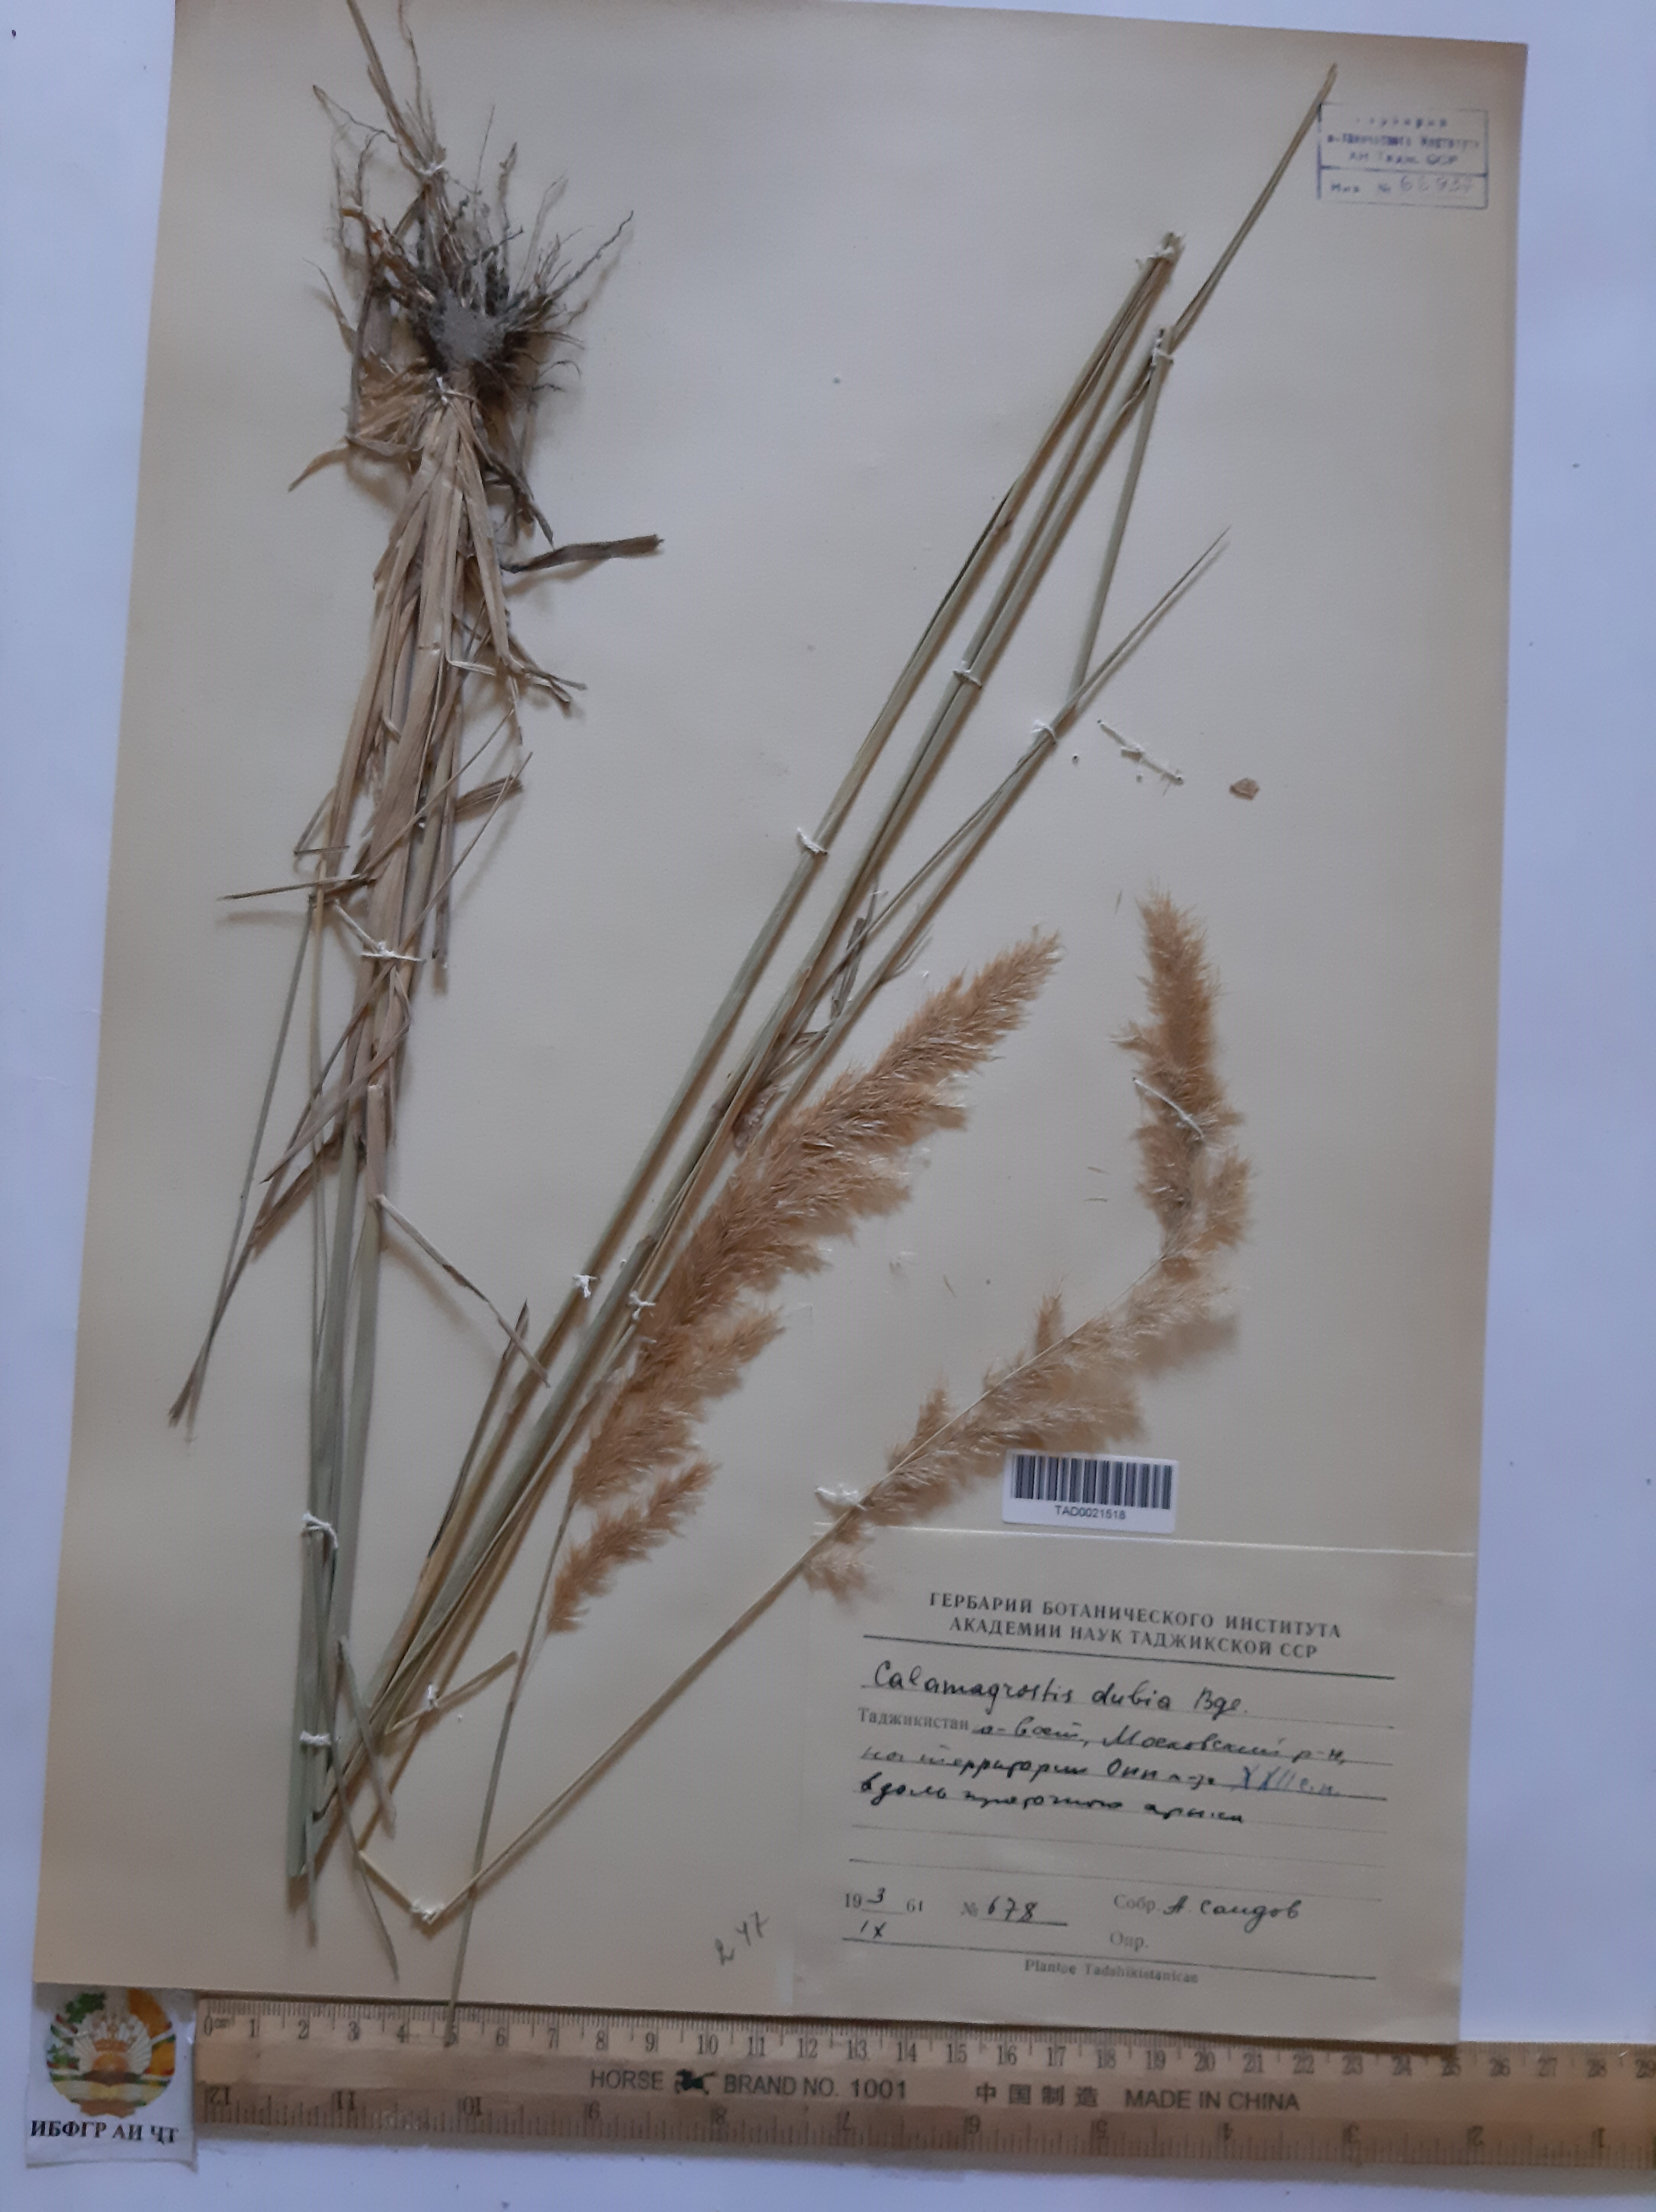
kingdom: Plantae
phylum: Tracheophyta
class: Liliopsida
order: Poales
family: Poaceae
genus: Calamagrostis
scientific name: Calamagrostis pseudophragmites
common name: Coastal small-reed
